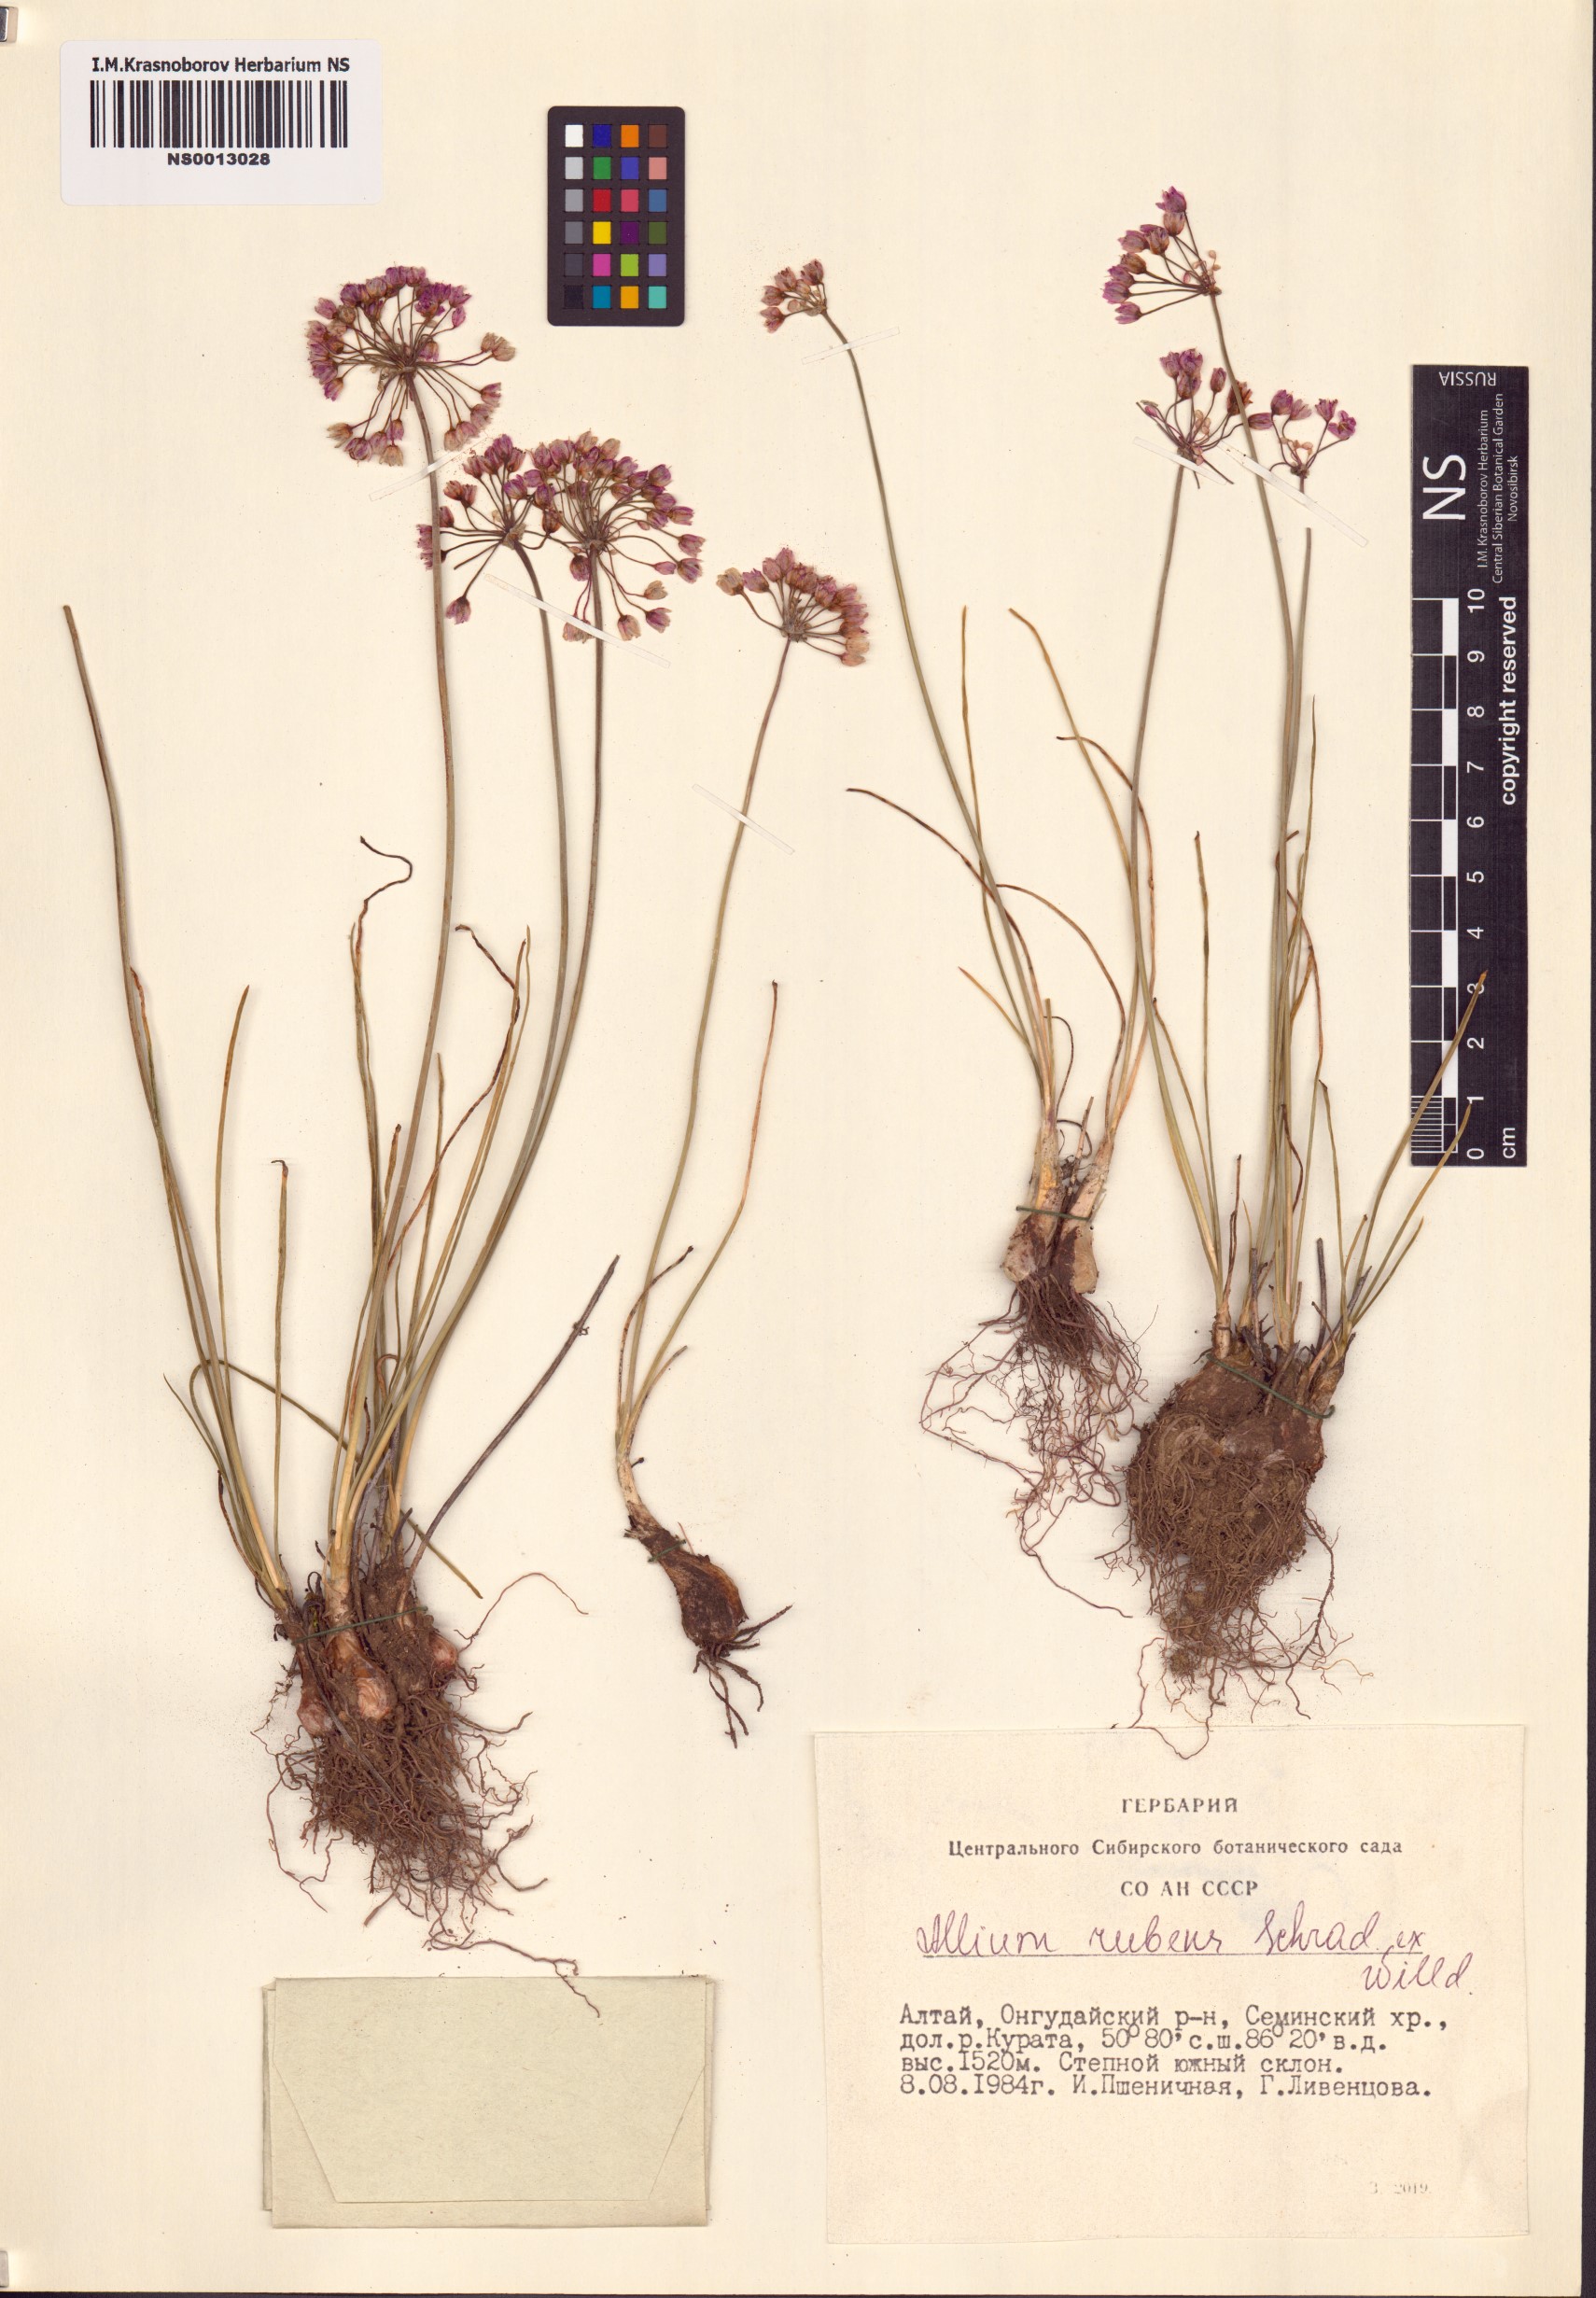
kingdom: Plantae
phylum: Tracheophyta
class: Liliopsida
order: Asparagales
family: Amaryllidaceae
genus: Allium
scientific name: Allium rubens
